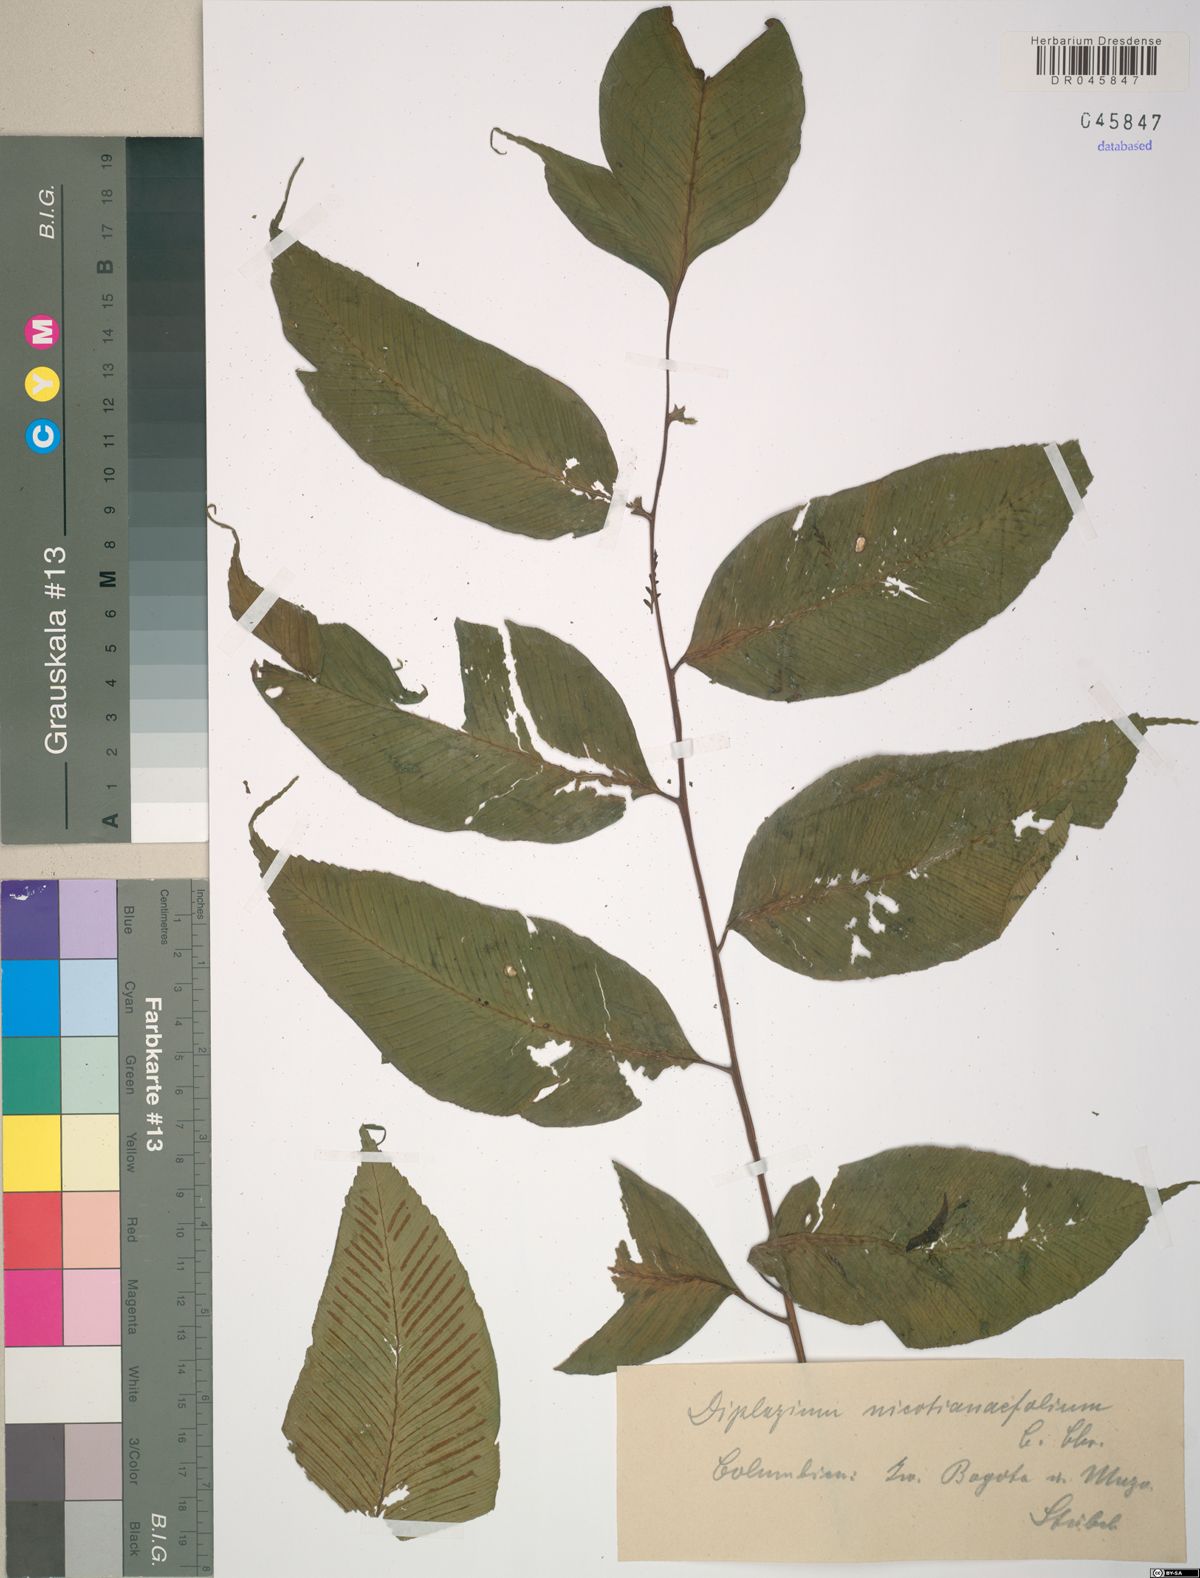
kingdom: Plantae
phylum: Tracheophyta
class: Polypodiopsida
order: Polypodiales
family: Athyriaceae
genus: Diplazium
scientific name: Diplazium nicotianifolium
